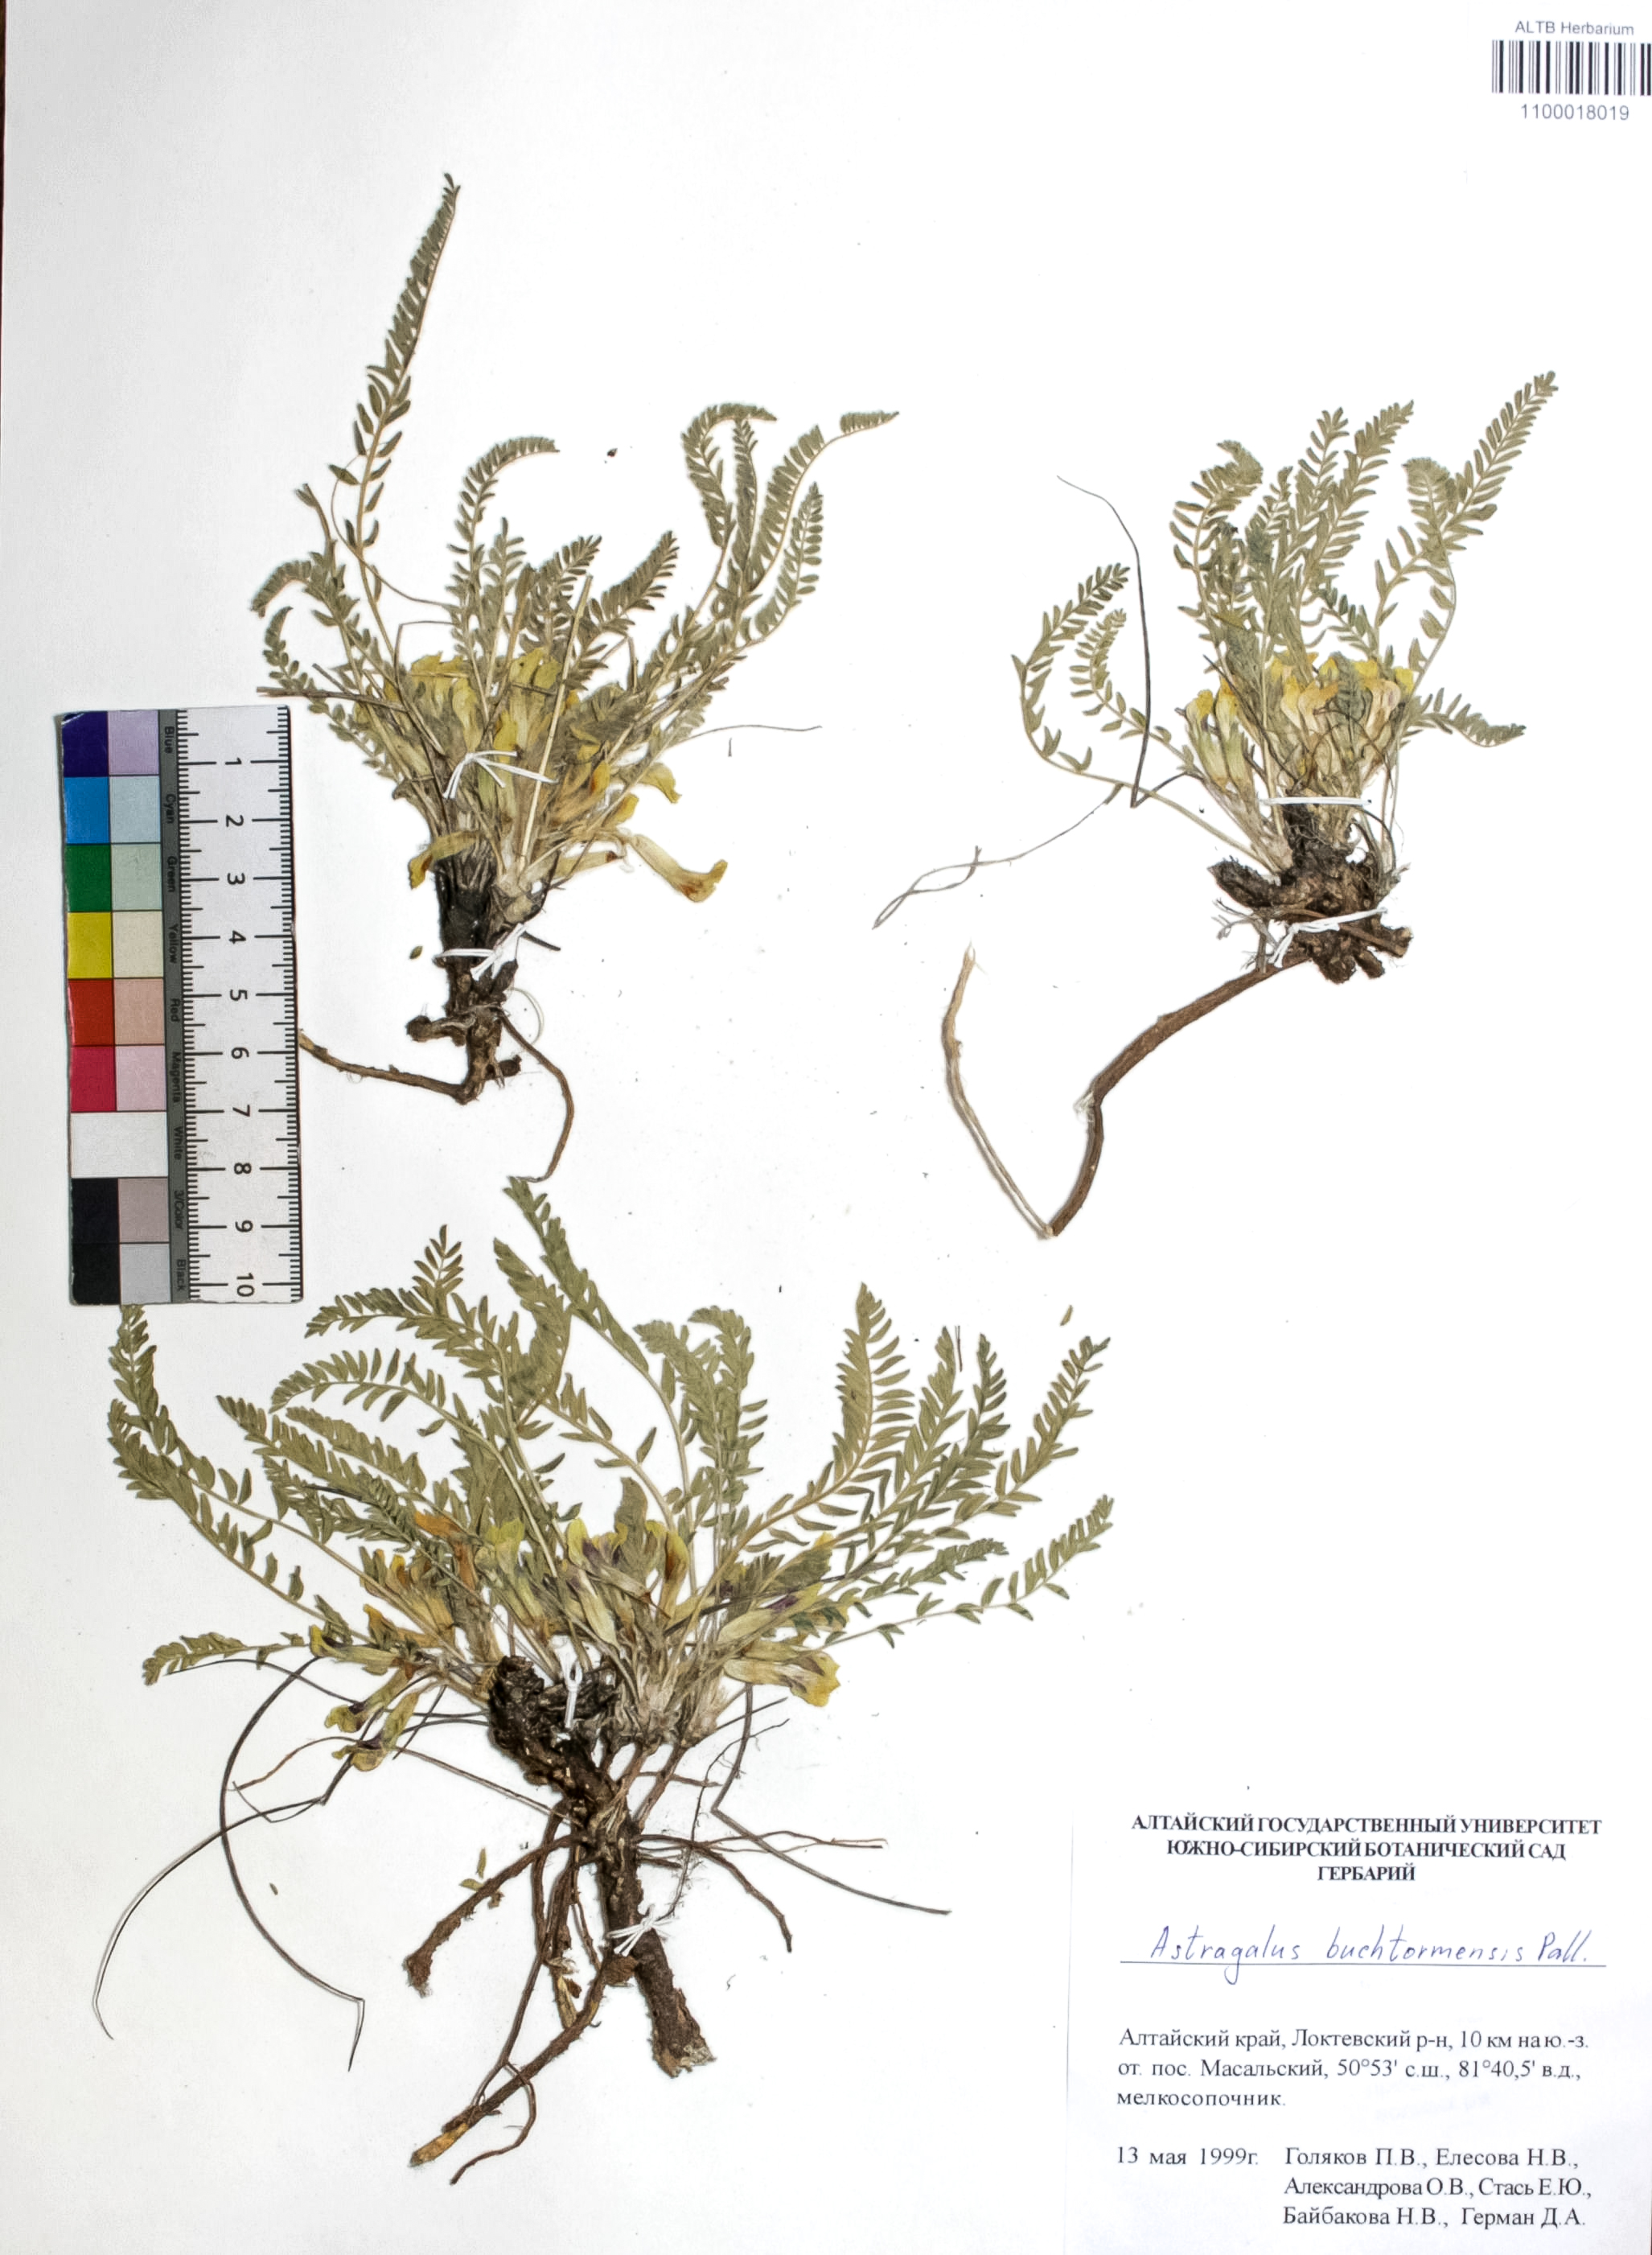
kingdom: Plantae
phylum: Tracheophyta
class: Magnoliopsida
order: Fabales
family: Fabaceae
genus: Astragalus
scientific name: Astragalus buchtormensis
